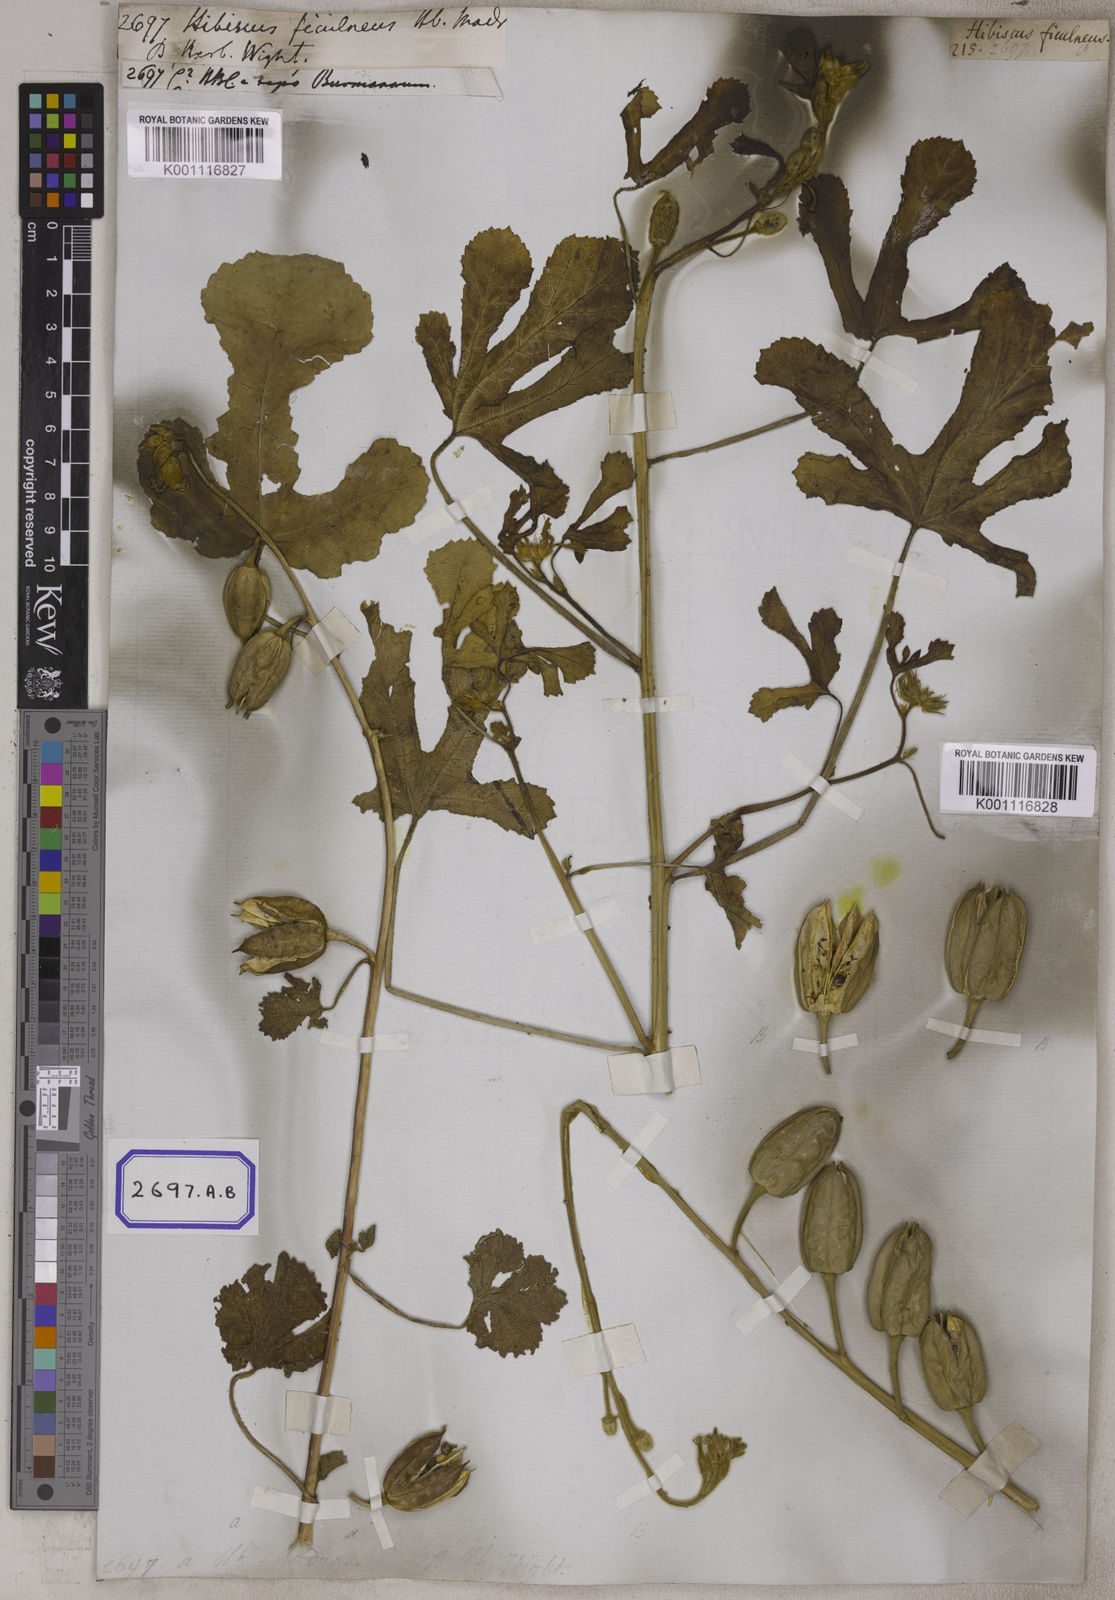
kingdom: Plantae
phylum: Tracheophyta
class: Magnoliopsida
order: Malvales
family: Malvaceae
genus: Abelmoschus
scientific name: Abelmoschus ficulneus
